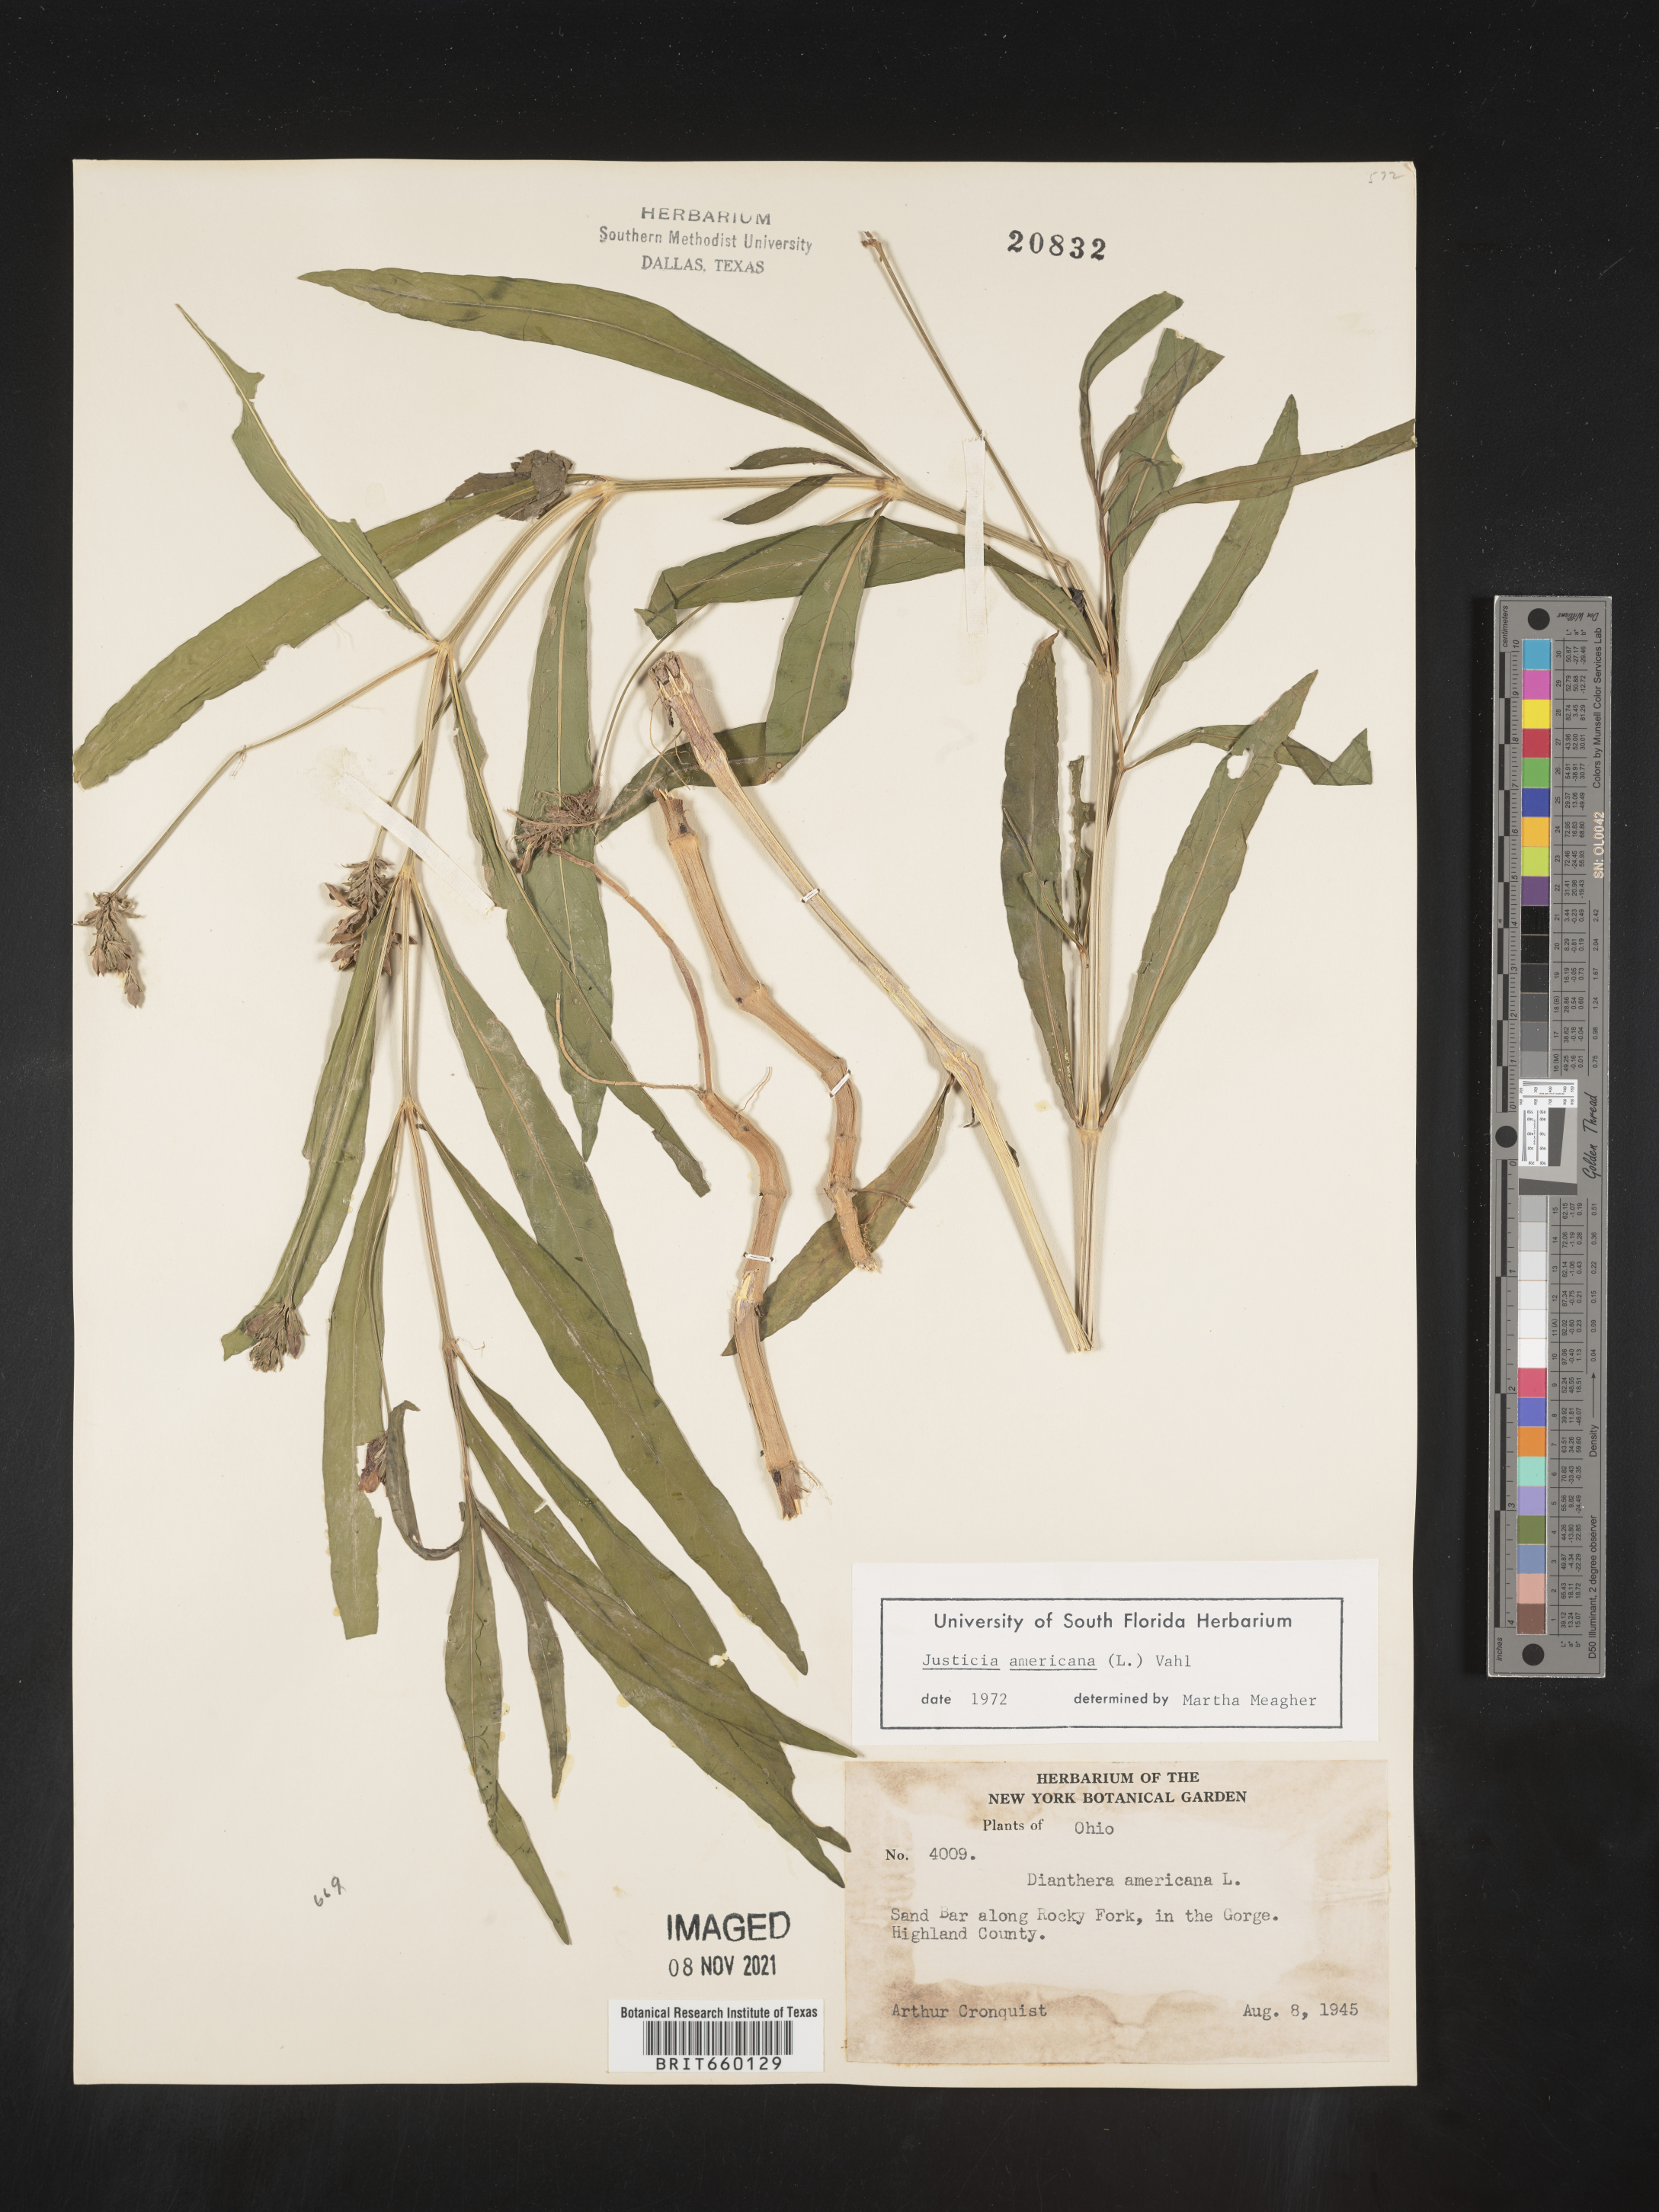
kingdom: Plantae
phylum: Tracheophyta
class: Magnoliopsida
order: Lamiales
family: Acanthaceae
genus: Dianthera
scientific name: Dianthera americana
